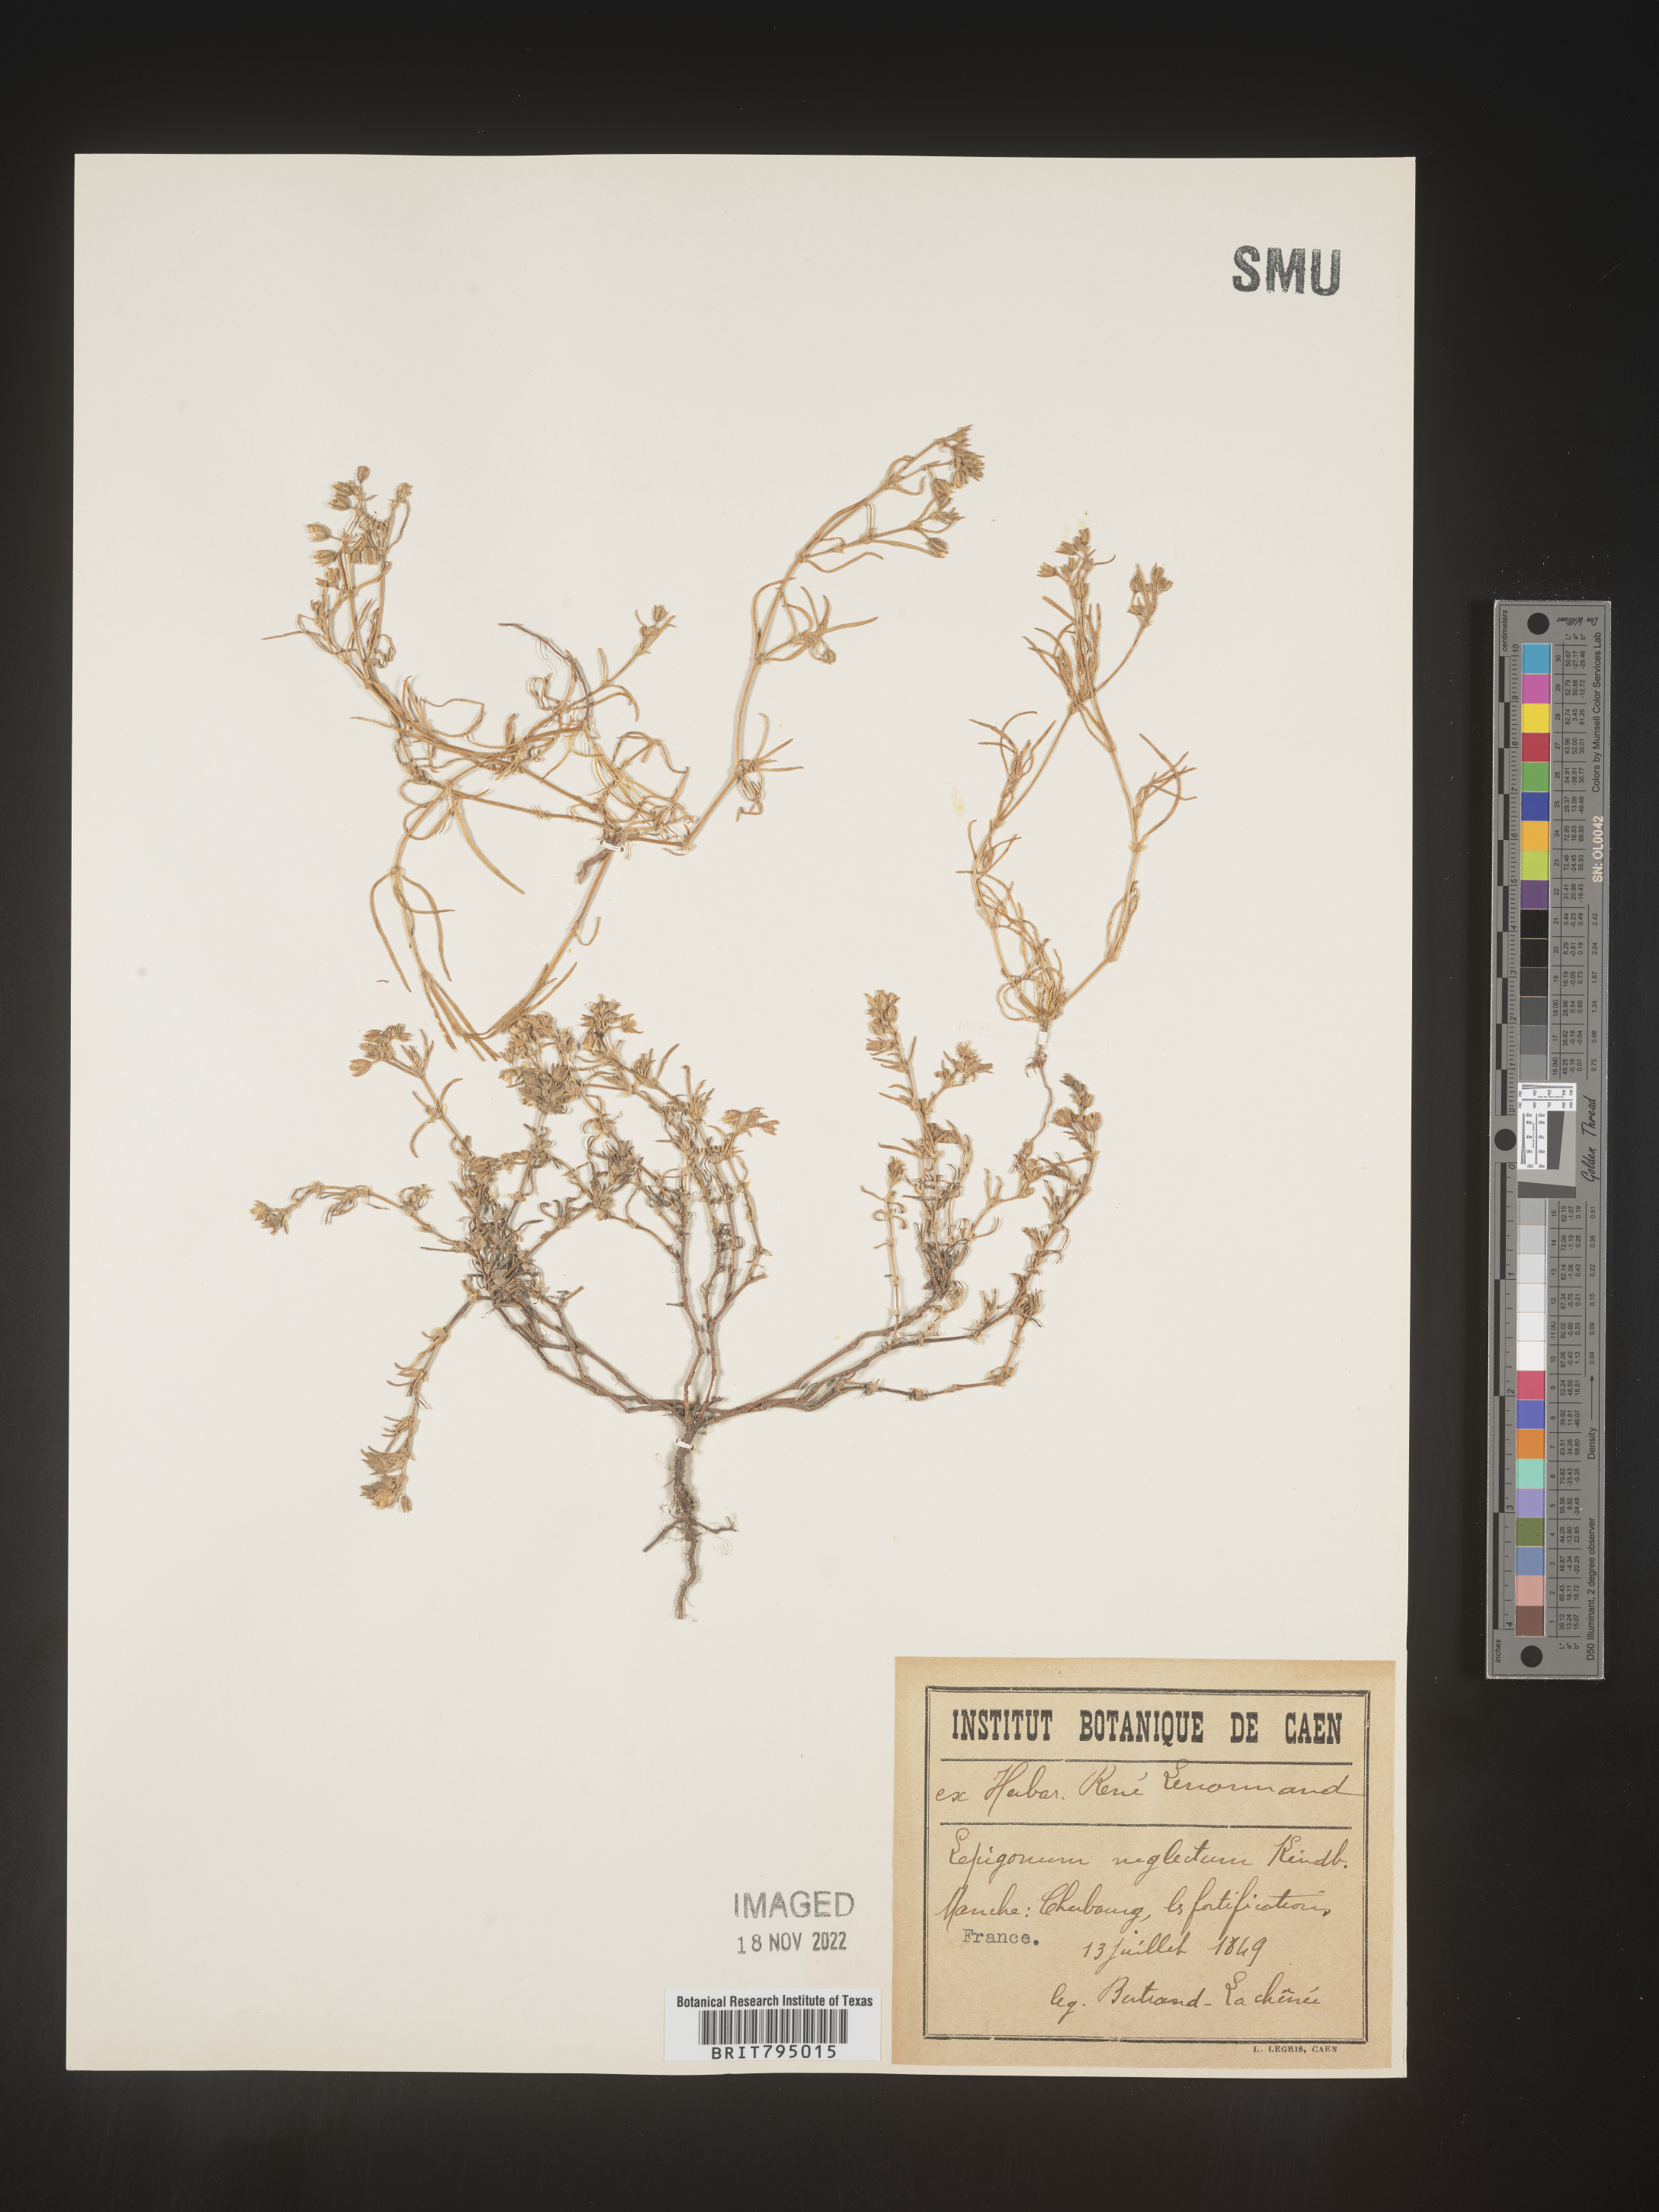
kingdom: Plantae
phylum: Tracheophyta
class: Magnoliopsida
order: Caryophyllales
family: Caryophyllaceae
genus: Spergularia
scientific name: Spergularia marina
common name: Lesser sea-spurrey
